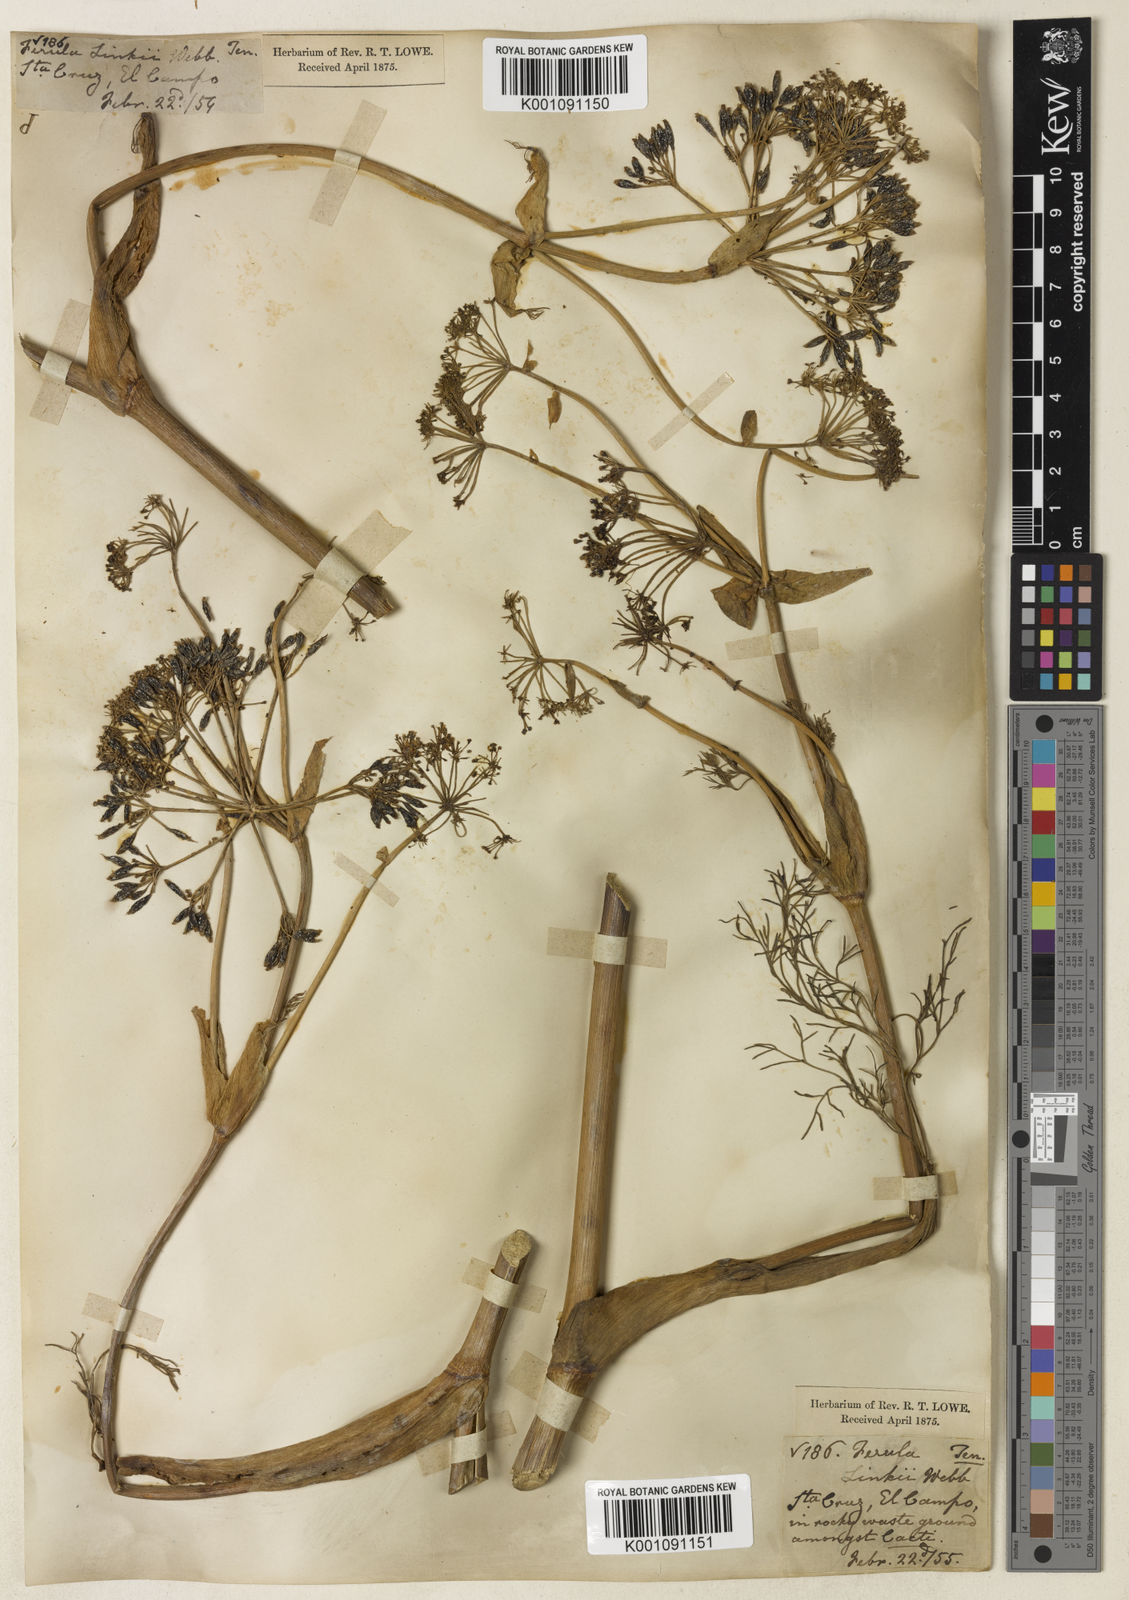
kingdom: Plantae
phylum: Tracheophyta
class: Magnoliopsida
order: Apiales
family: Apiaceae
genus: Ferula
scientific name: Ferula communis
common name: Giant fennel
